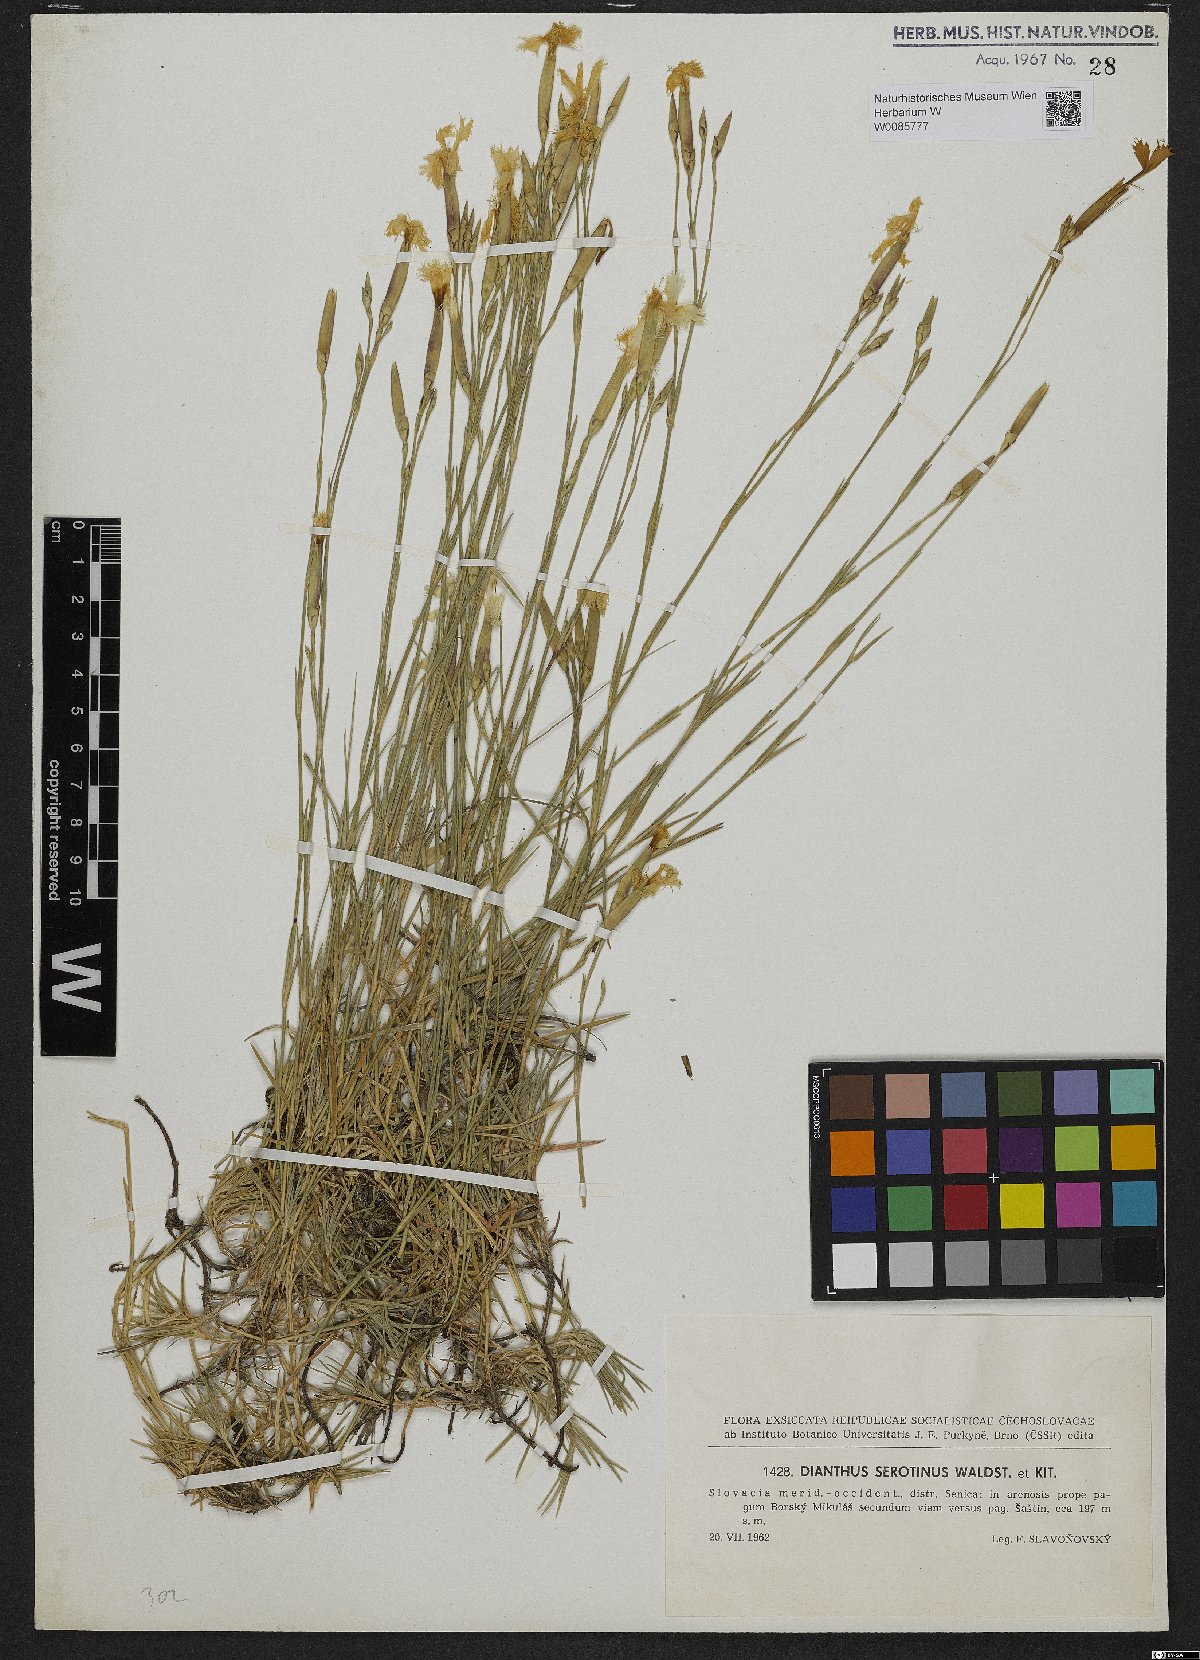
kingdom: Plantae
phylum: Tracheophyta
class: Magnoliopsida
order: Caryophyllales
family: Caryophyllaceae
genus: Dianthus
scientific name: Dianthus serotinus
